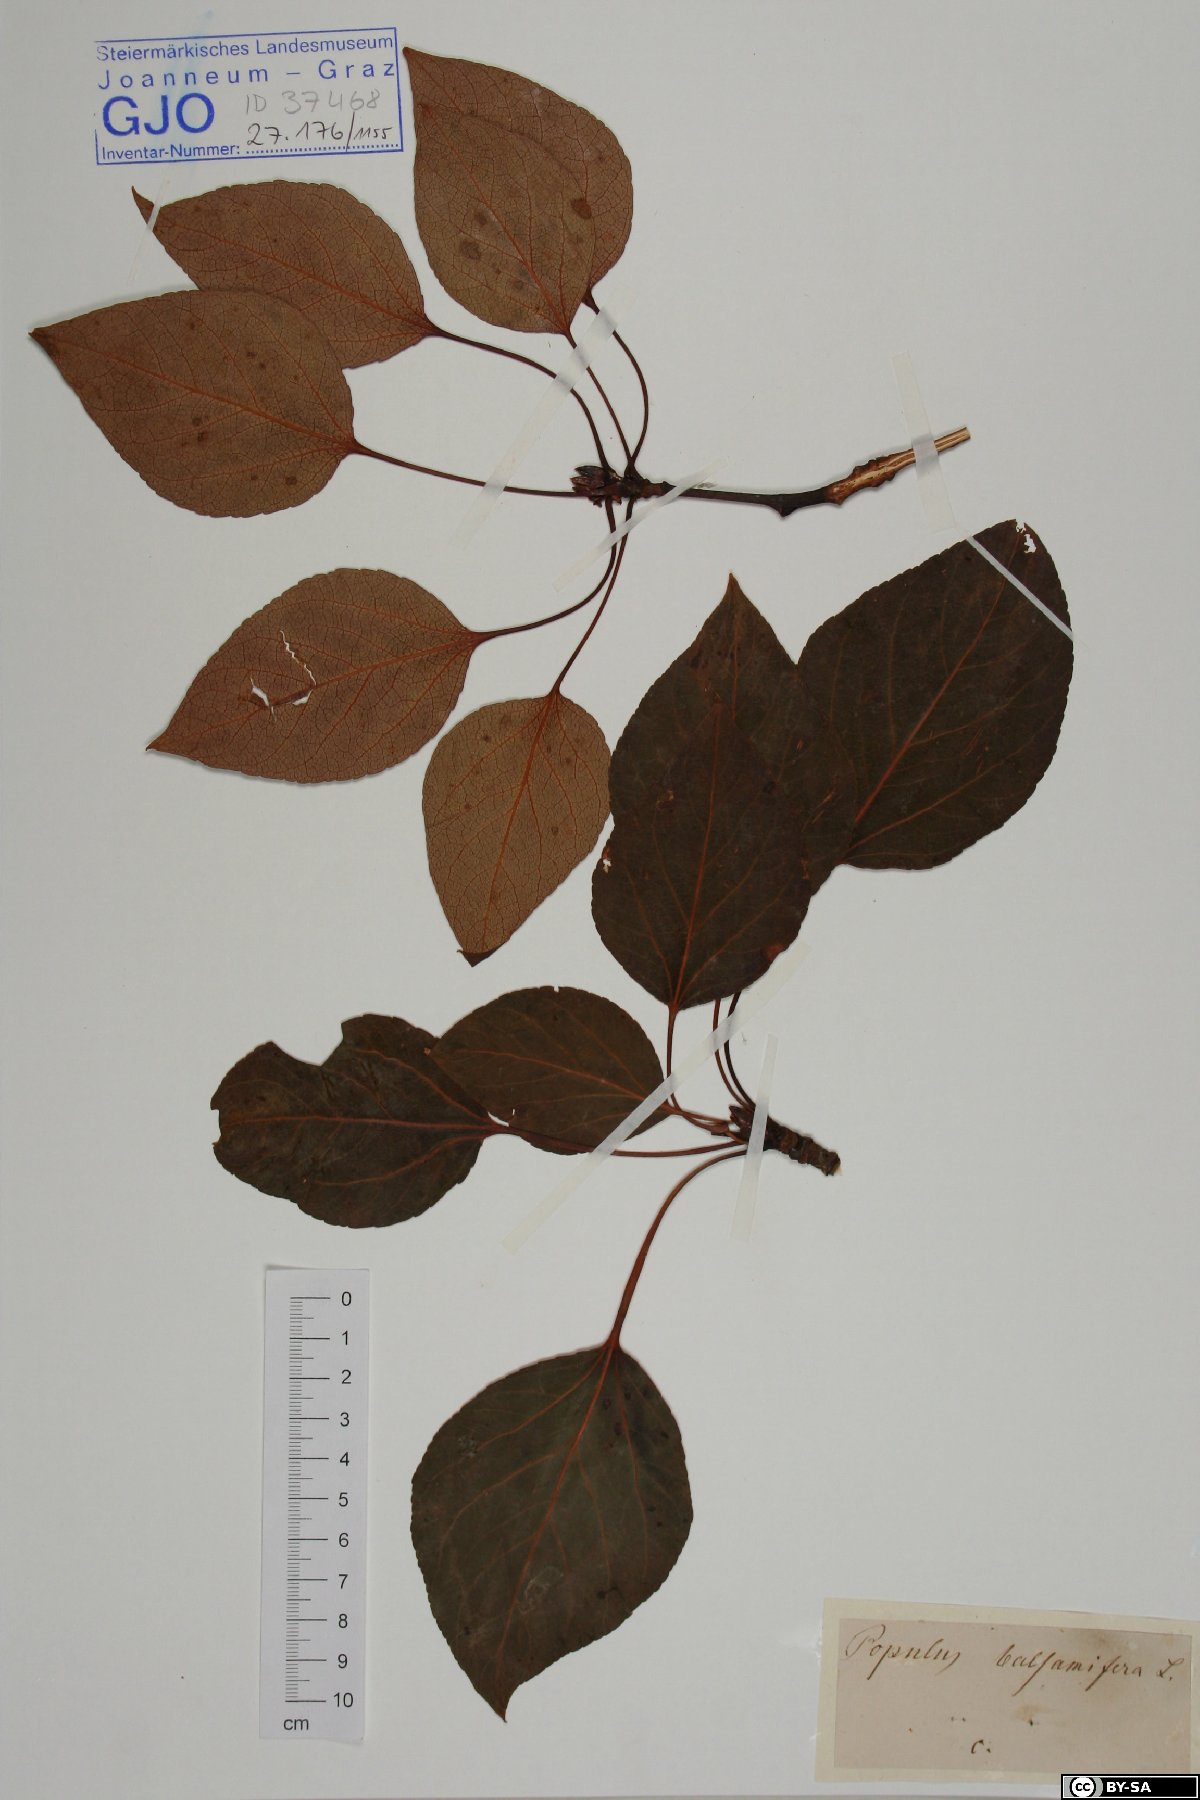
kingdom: Plantae
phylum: Tracheophyta
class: Magnoliopsida
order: Malpighiales
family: Salicaceae
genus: Populus
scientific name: Populus balsamifera
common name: Balsam poplar
